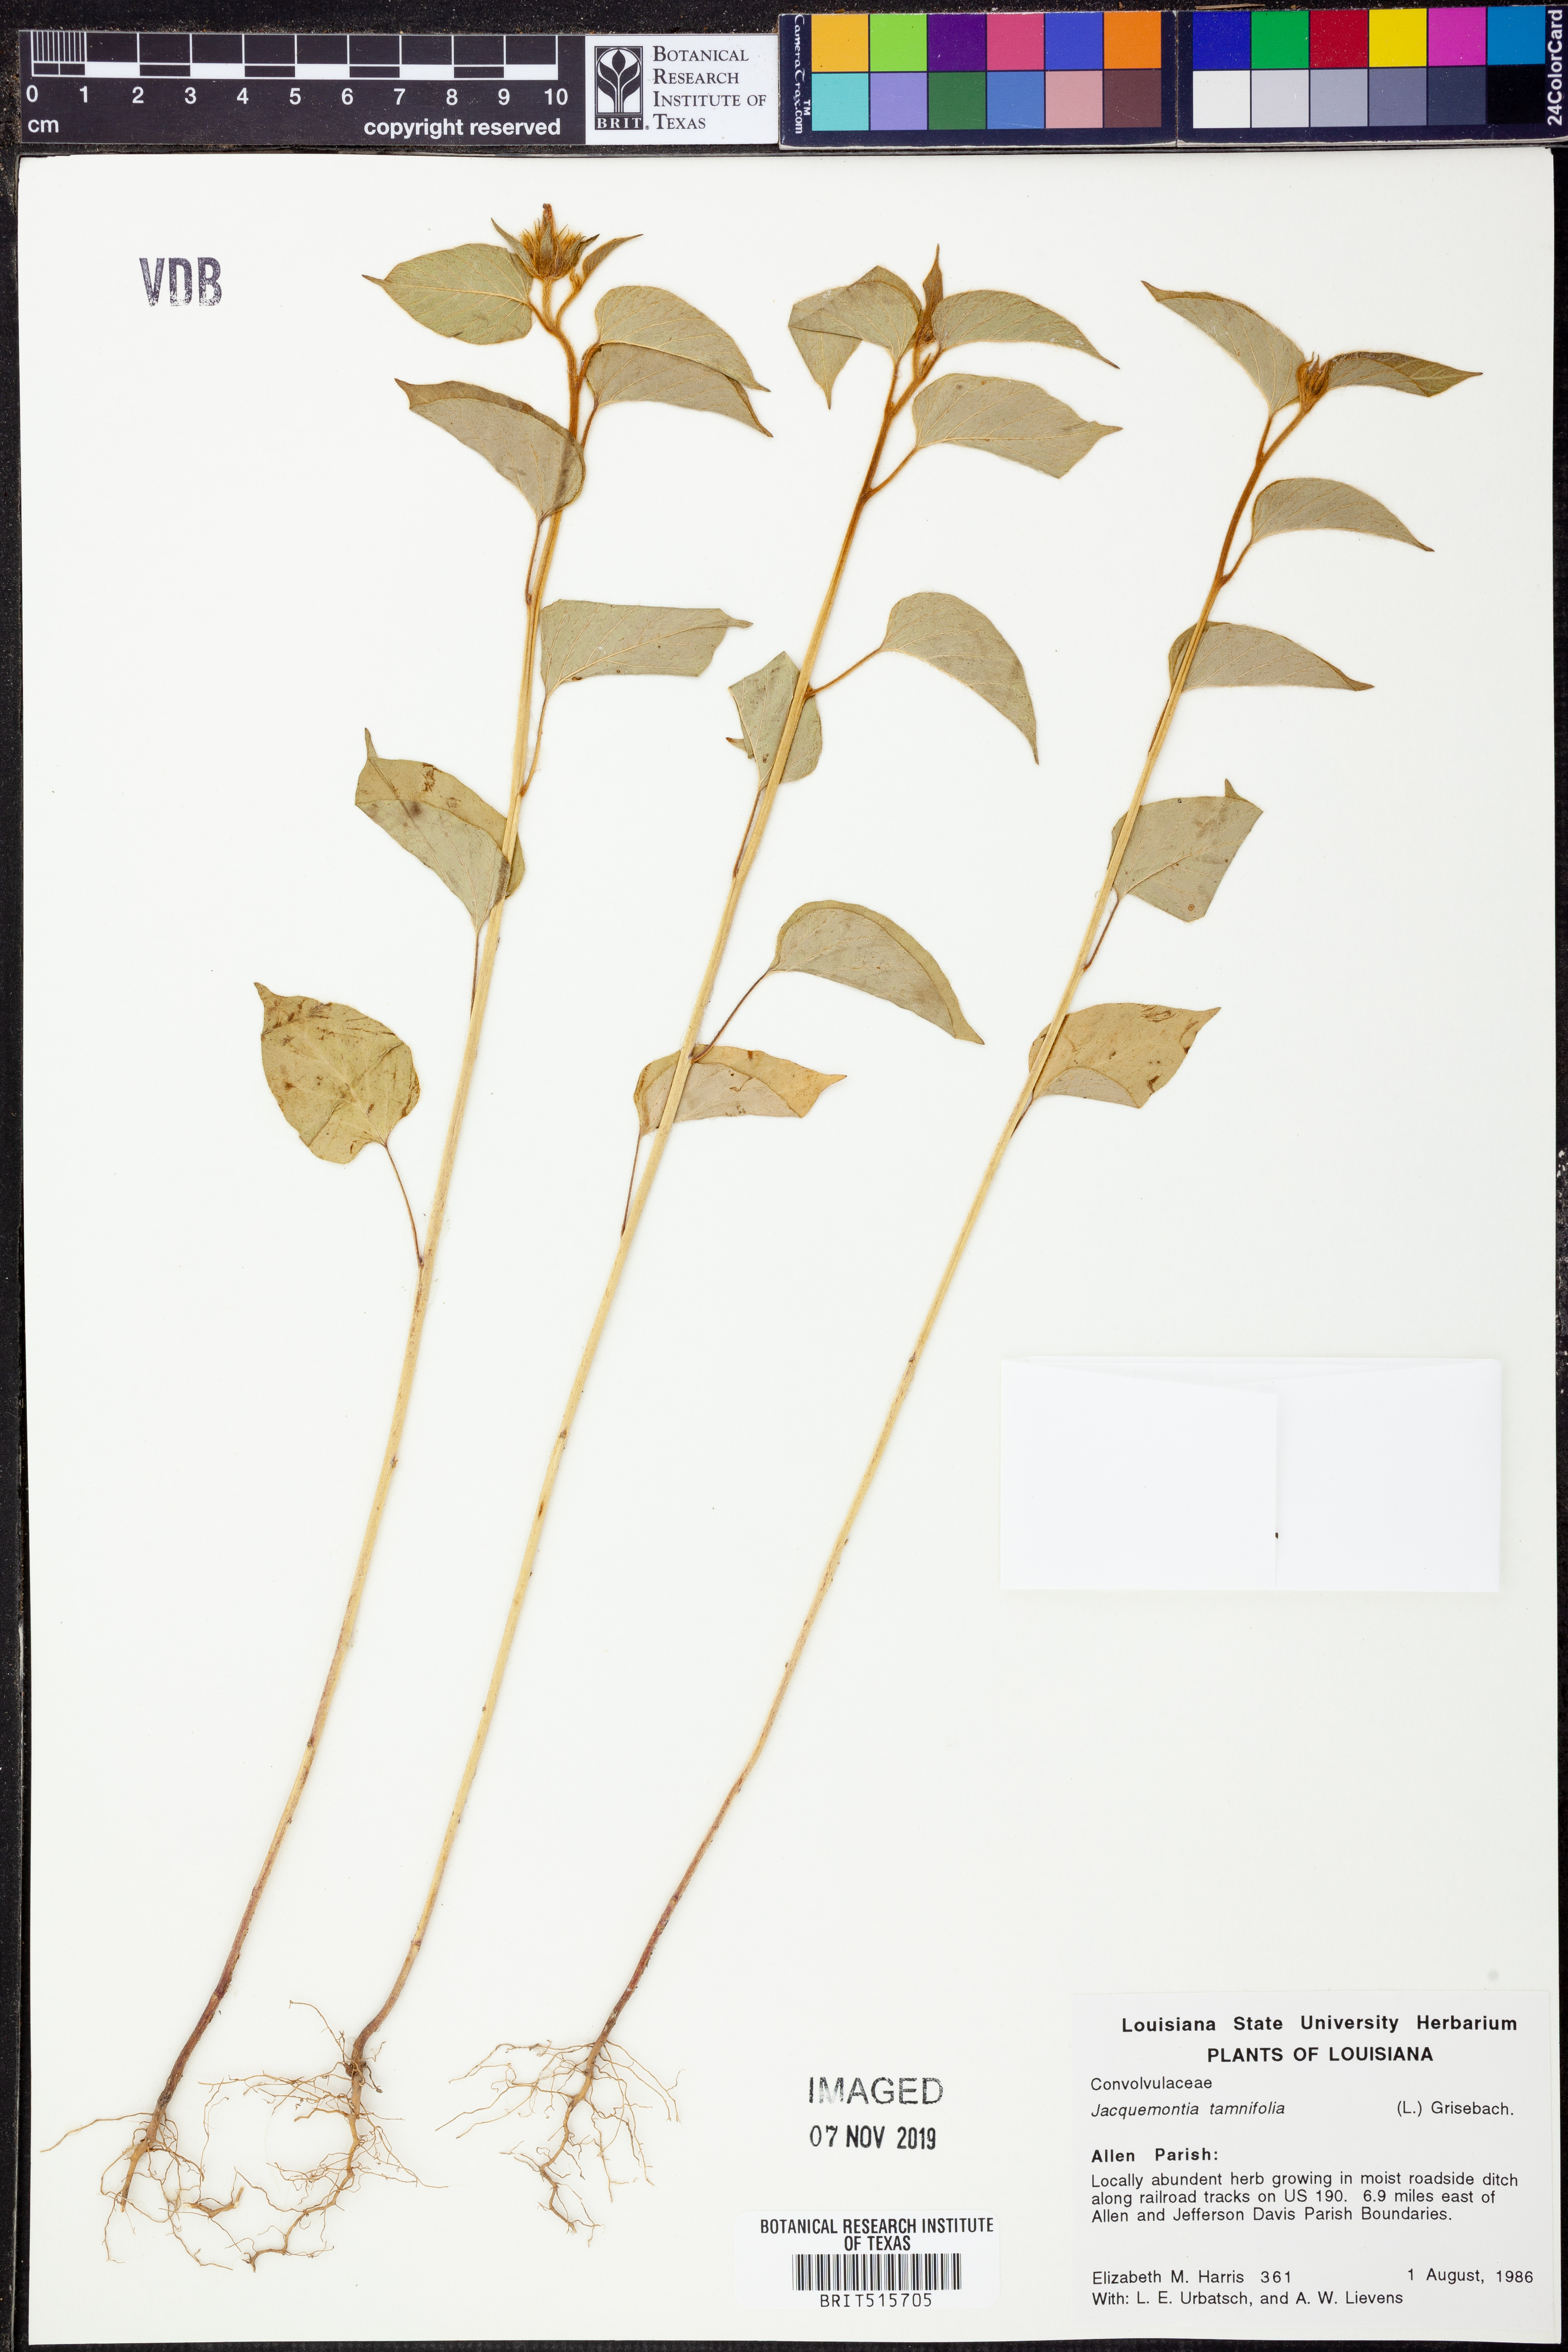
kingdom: Plantae
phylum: Tracheophyta
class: Magnoliopsida
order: Solanales
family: Convolvulaceae
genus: Jacquemontia
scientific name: Jacquemontia tamnifolia
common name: Hairy clustervine
